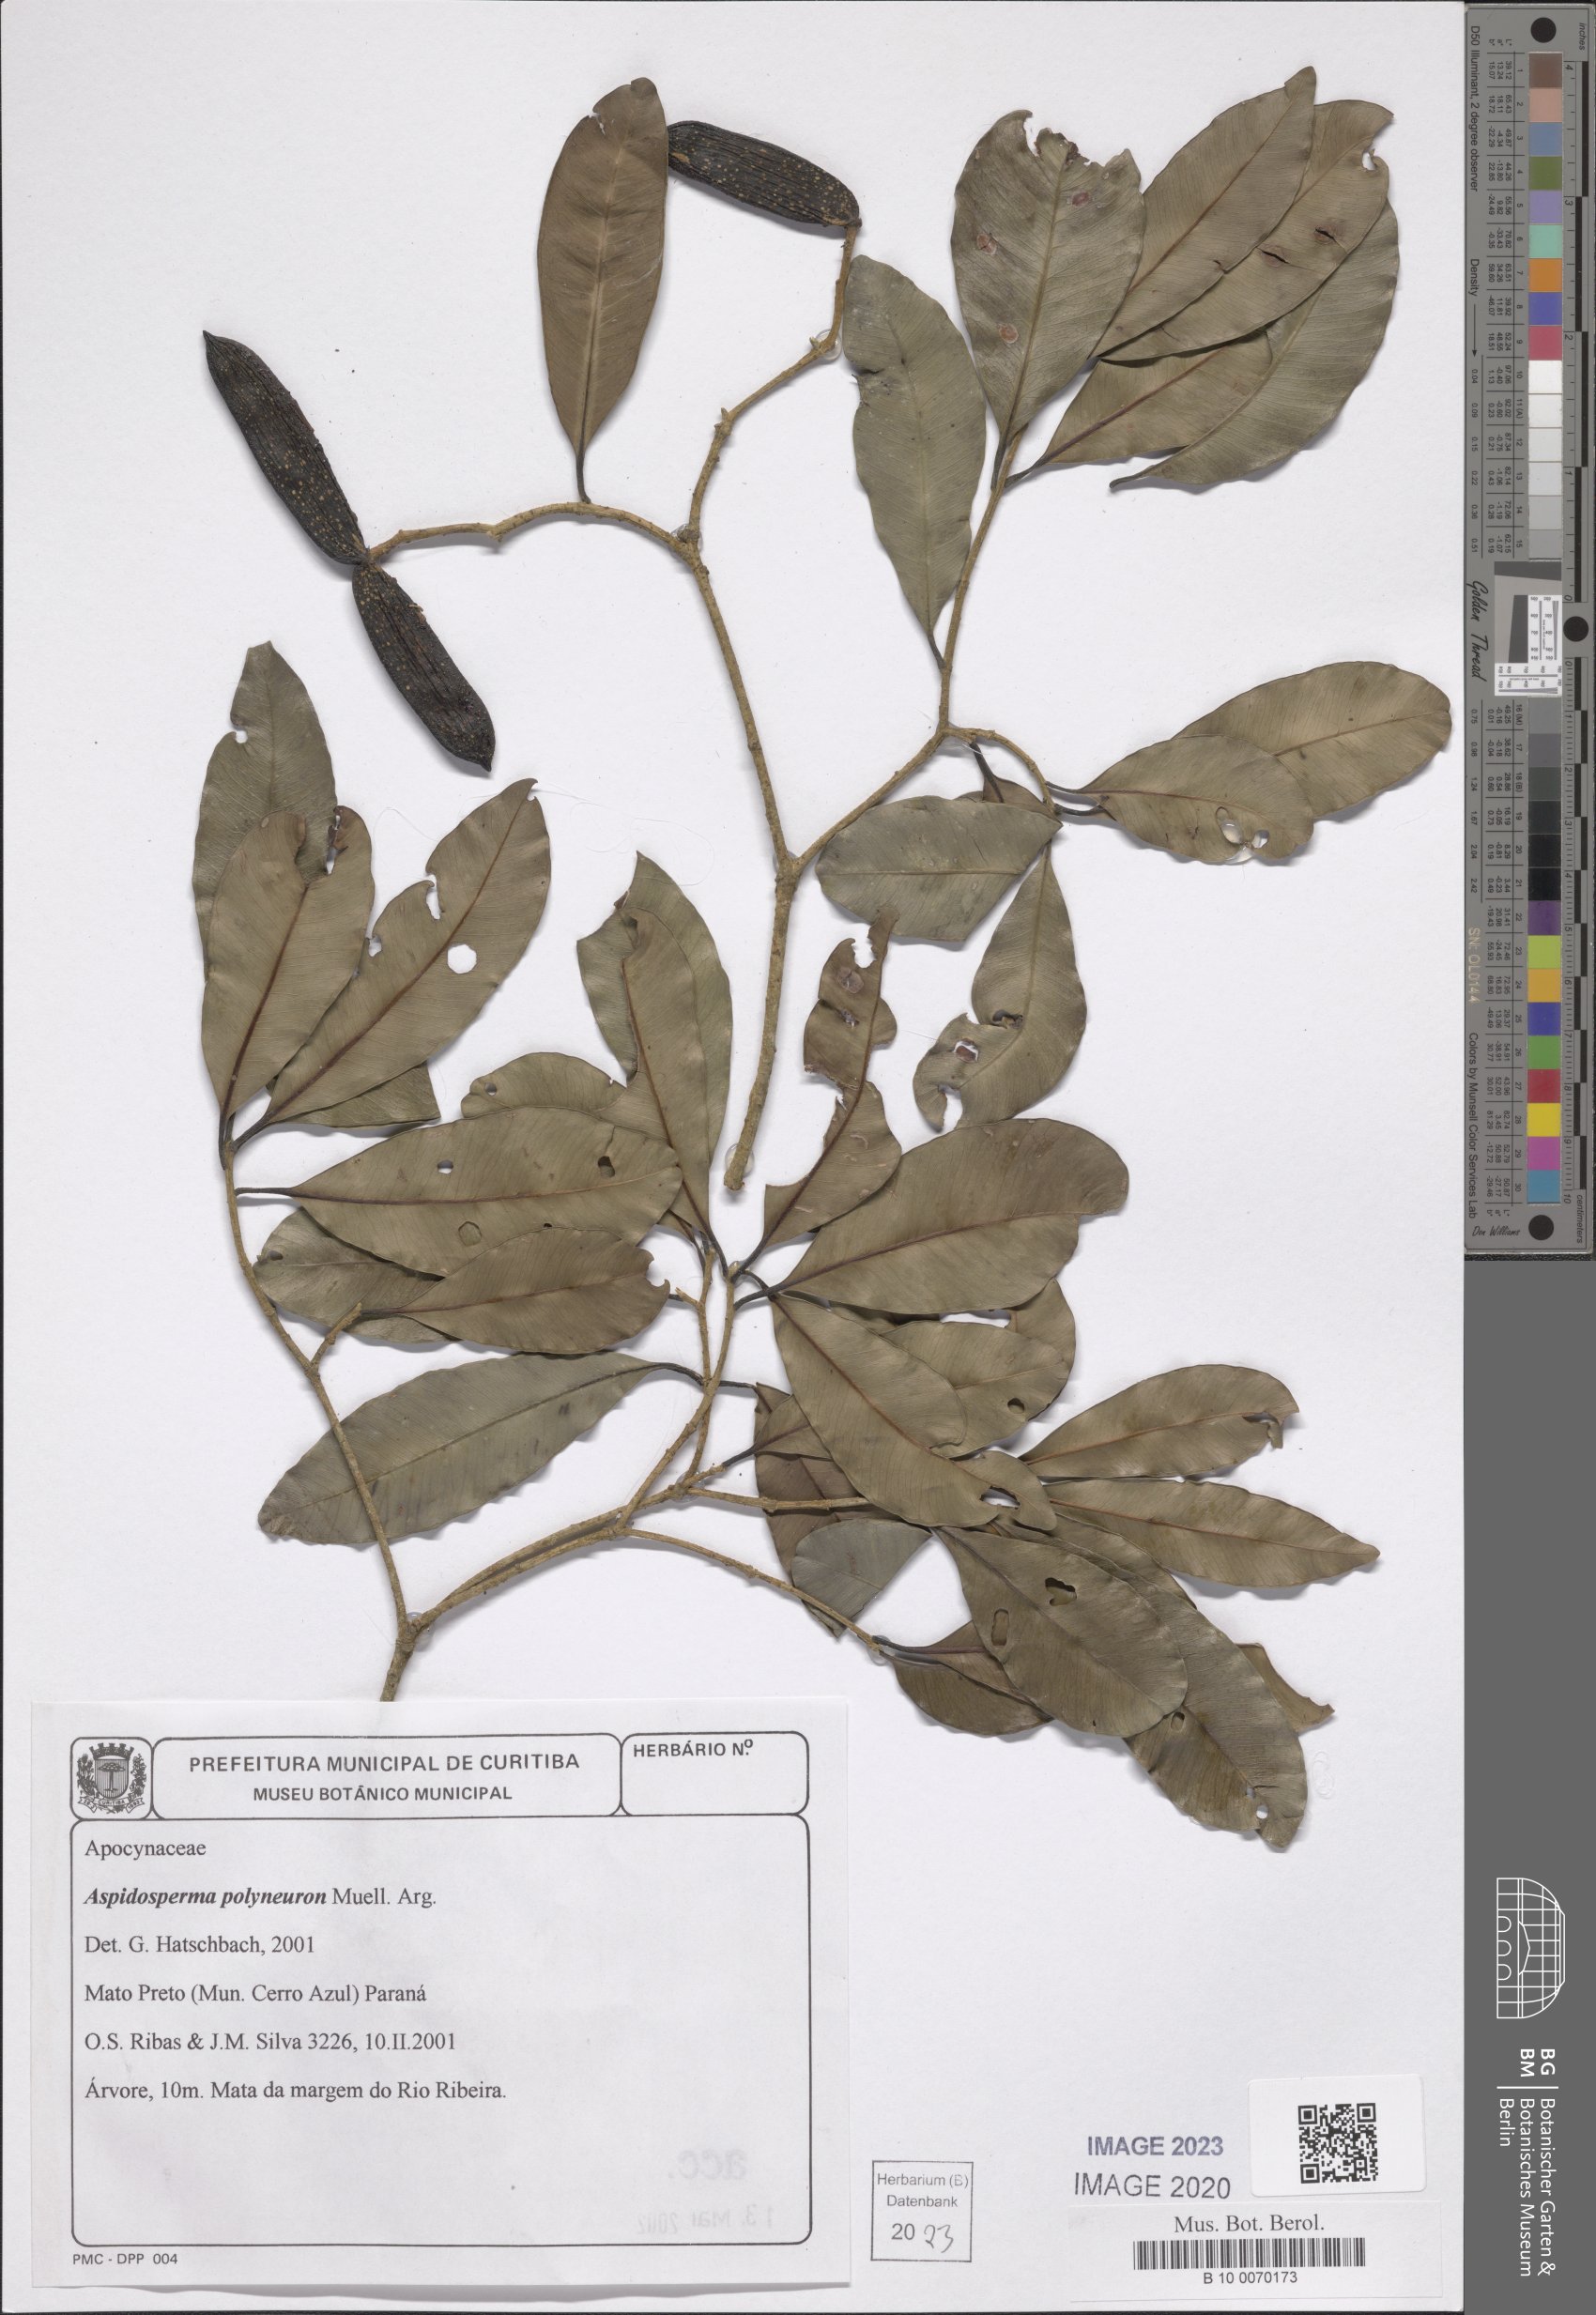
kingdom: Plantae
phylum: Tracheophyta
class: Magnoliopsida
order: Gentianales
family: Apocynaceae
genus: Aspidosperma
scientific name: Aspidosperma polyneuron
